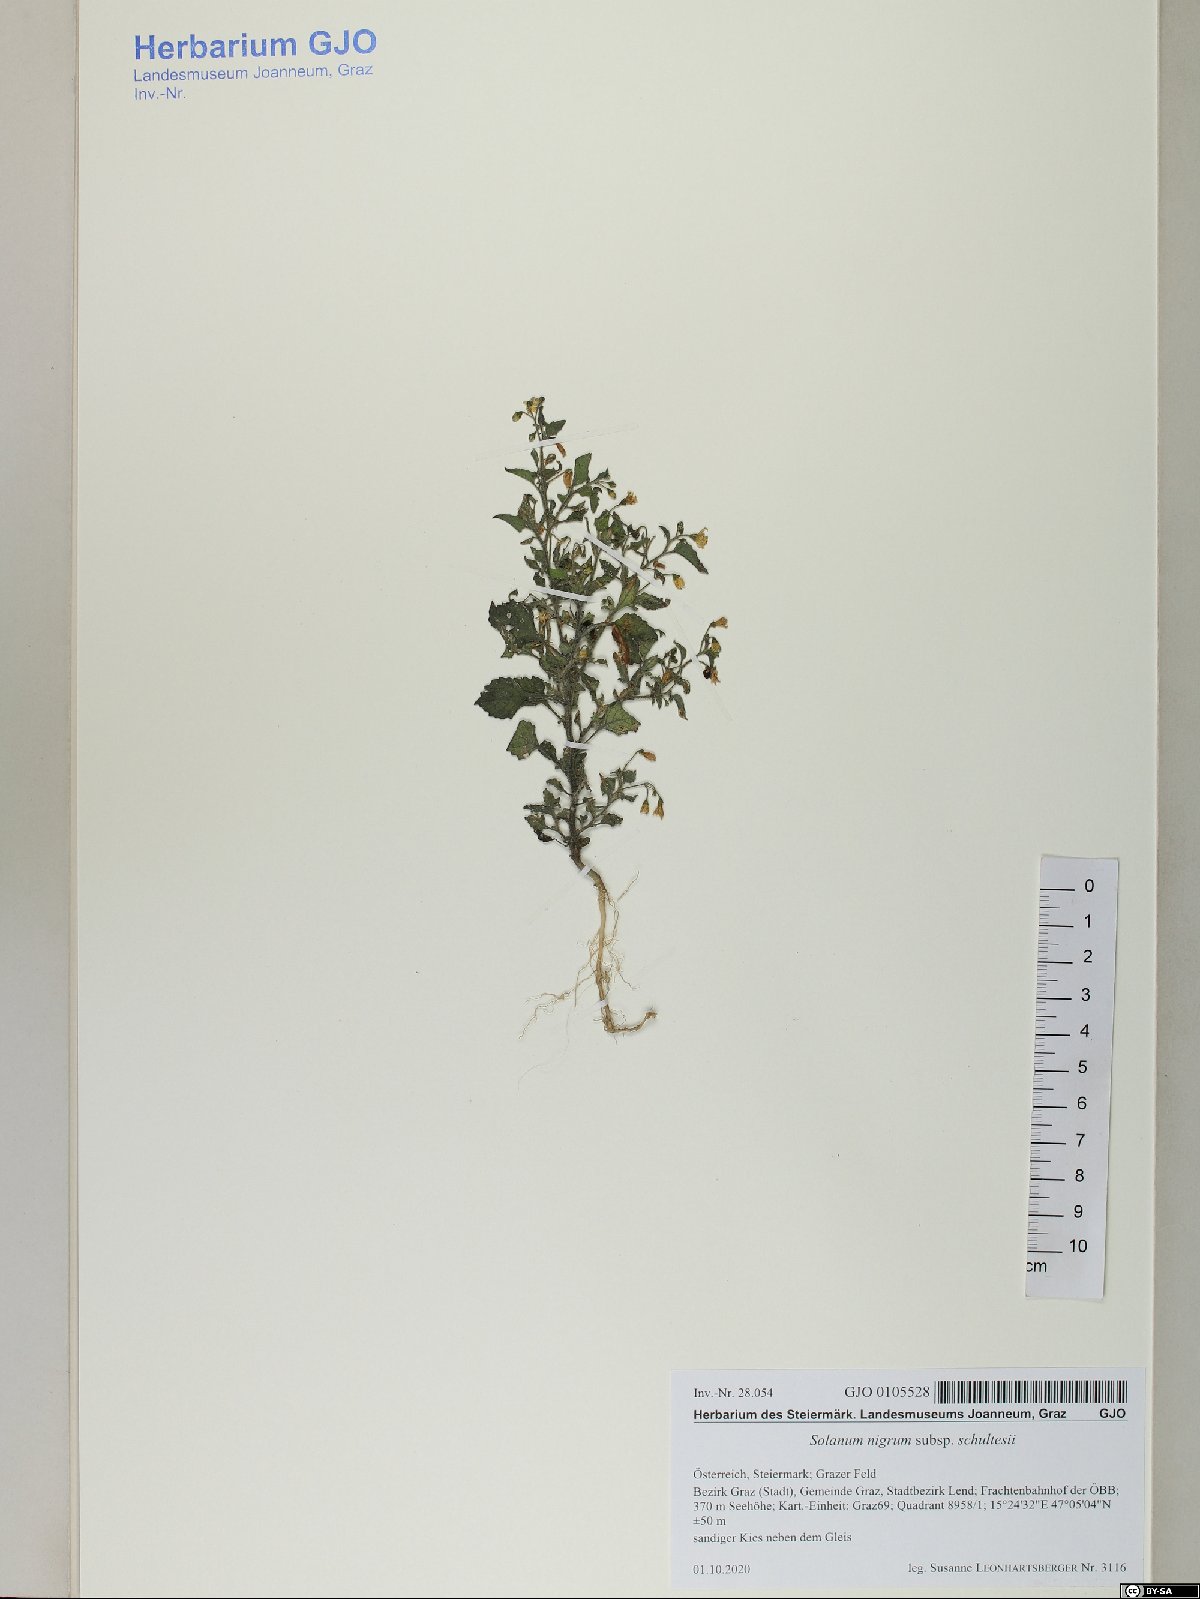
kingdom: Plantae
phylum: Tracheophyta
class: Magnoliopsida
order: Solanales
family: Solanaceae
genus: Solanum
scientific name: Solanum decipiens
